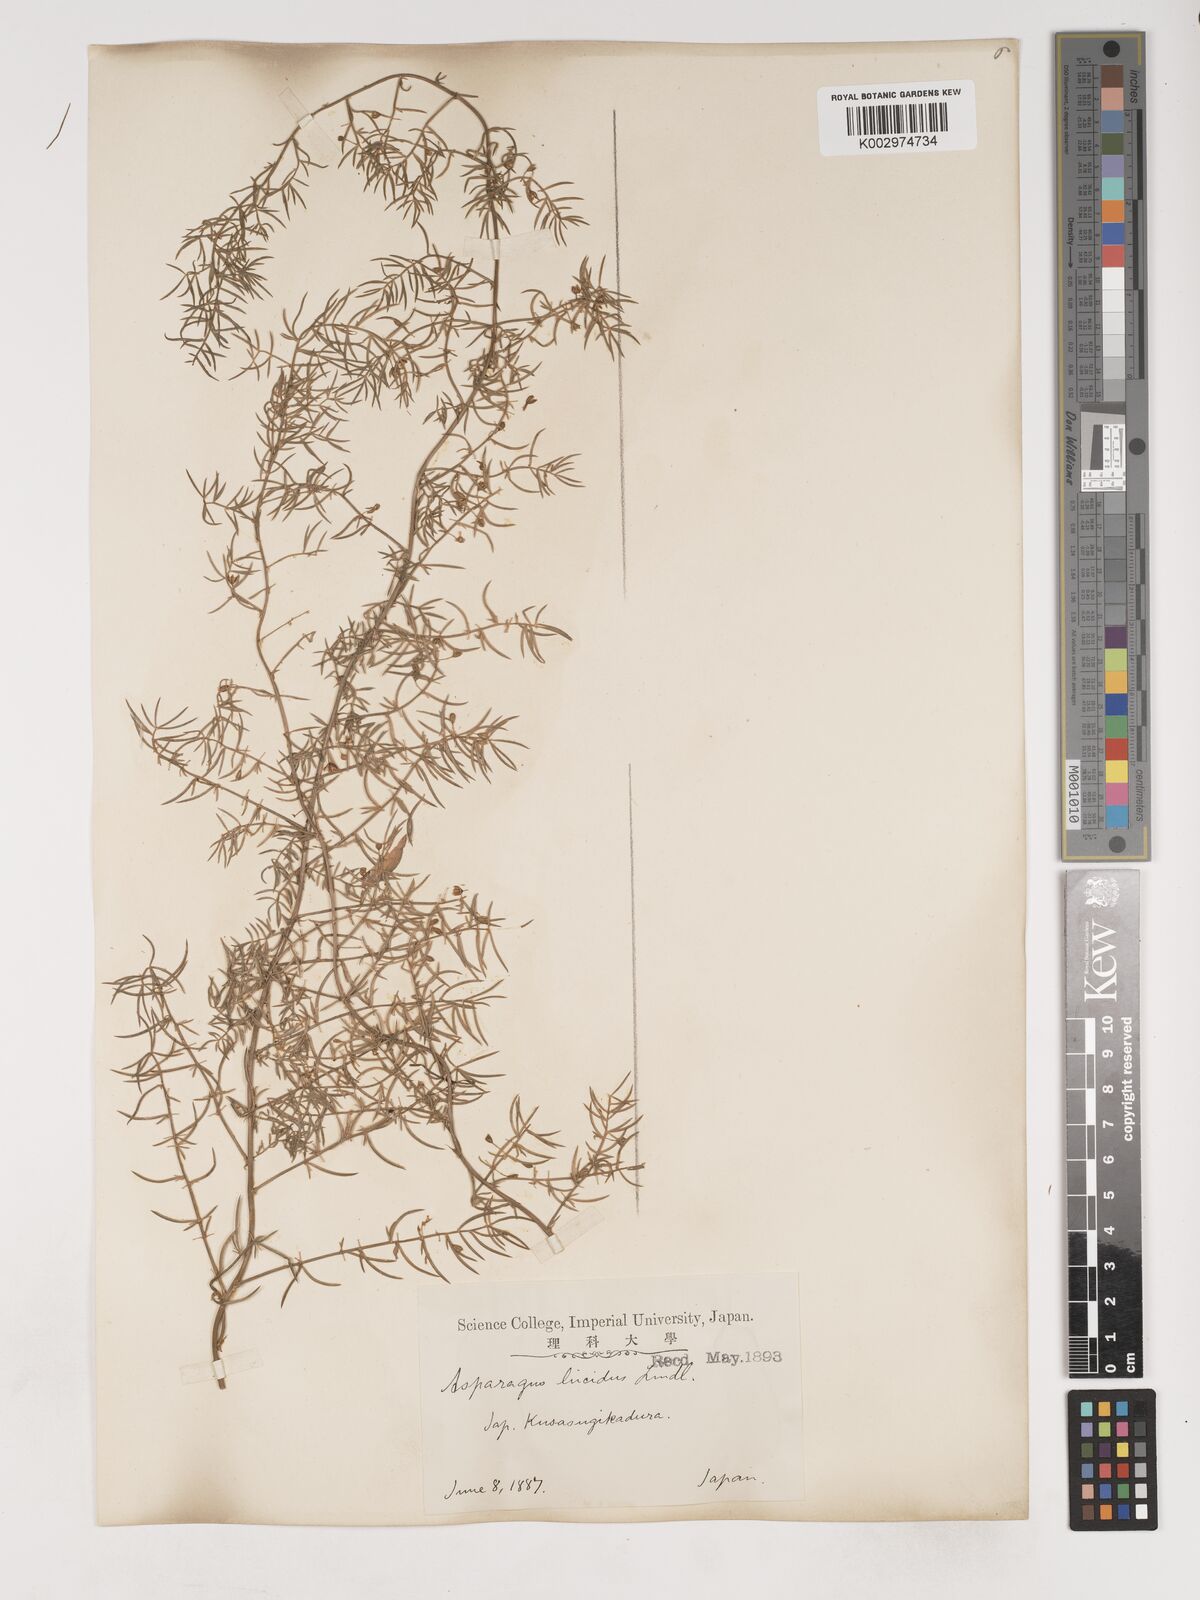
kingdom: Plantae
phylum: Tracheophyta
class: Liliopsida
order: Asparagales
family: Asparagaceae
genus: Asparagus
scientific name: Asparagus cochinchinensis
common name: Chinese asparagus
